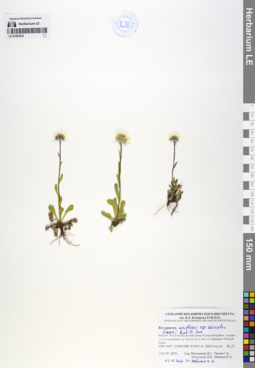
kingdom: Plantae
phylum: Tracheophyta
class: Magnoliopsida
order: Asterales
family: Asteraceae
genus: Erigeron
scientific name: Erigeron eriocalyx
